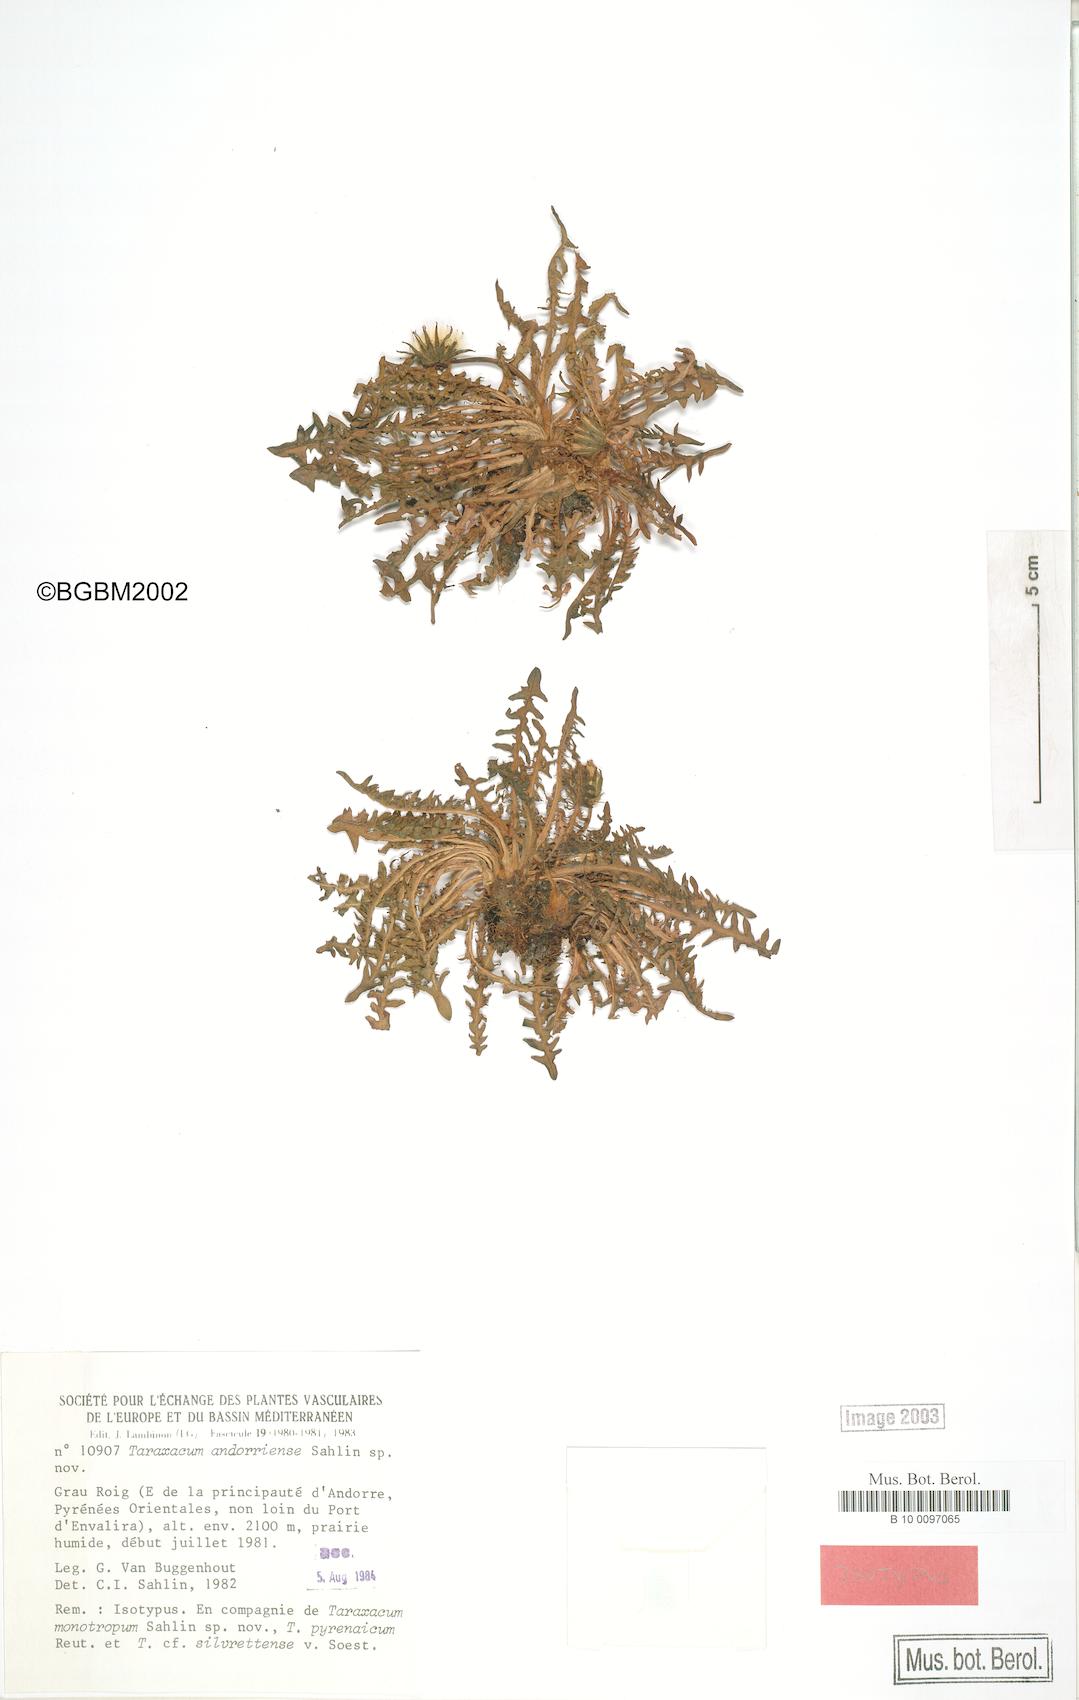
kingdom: Plantae
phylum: Tracheophyta
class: Magnoliopsida
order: Asterales
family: Asteraceae
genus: Taraxacum
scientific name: Taraxacum andorriense
